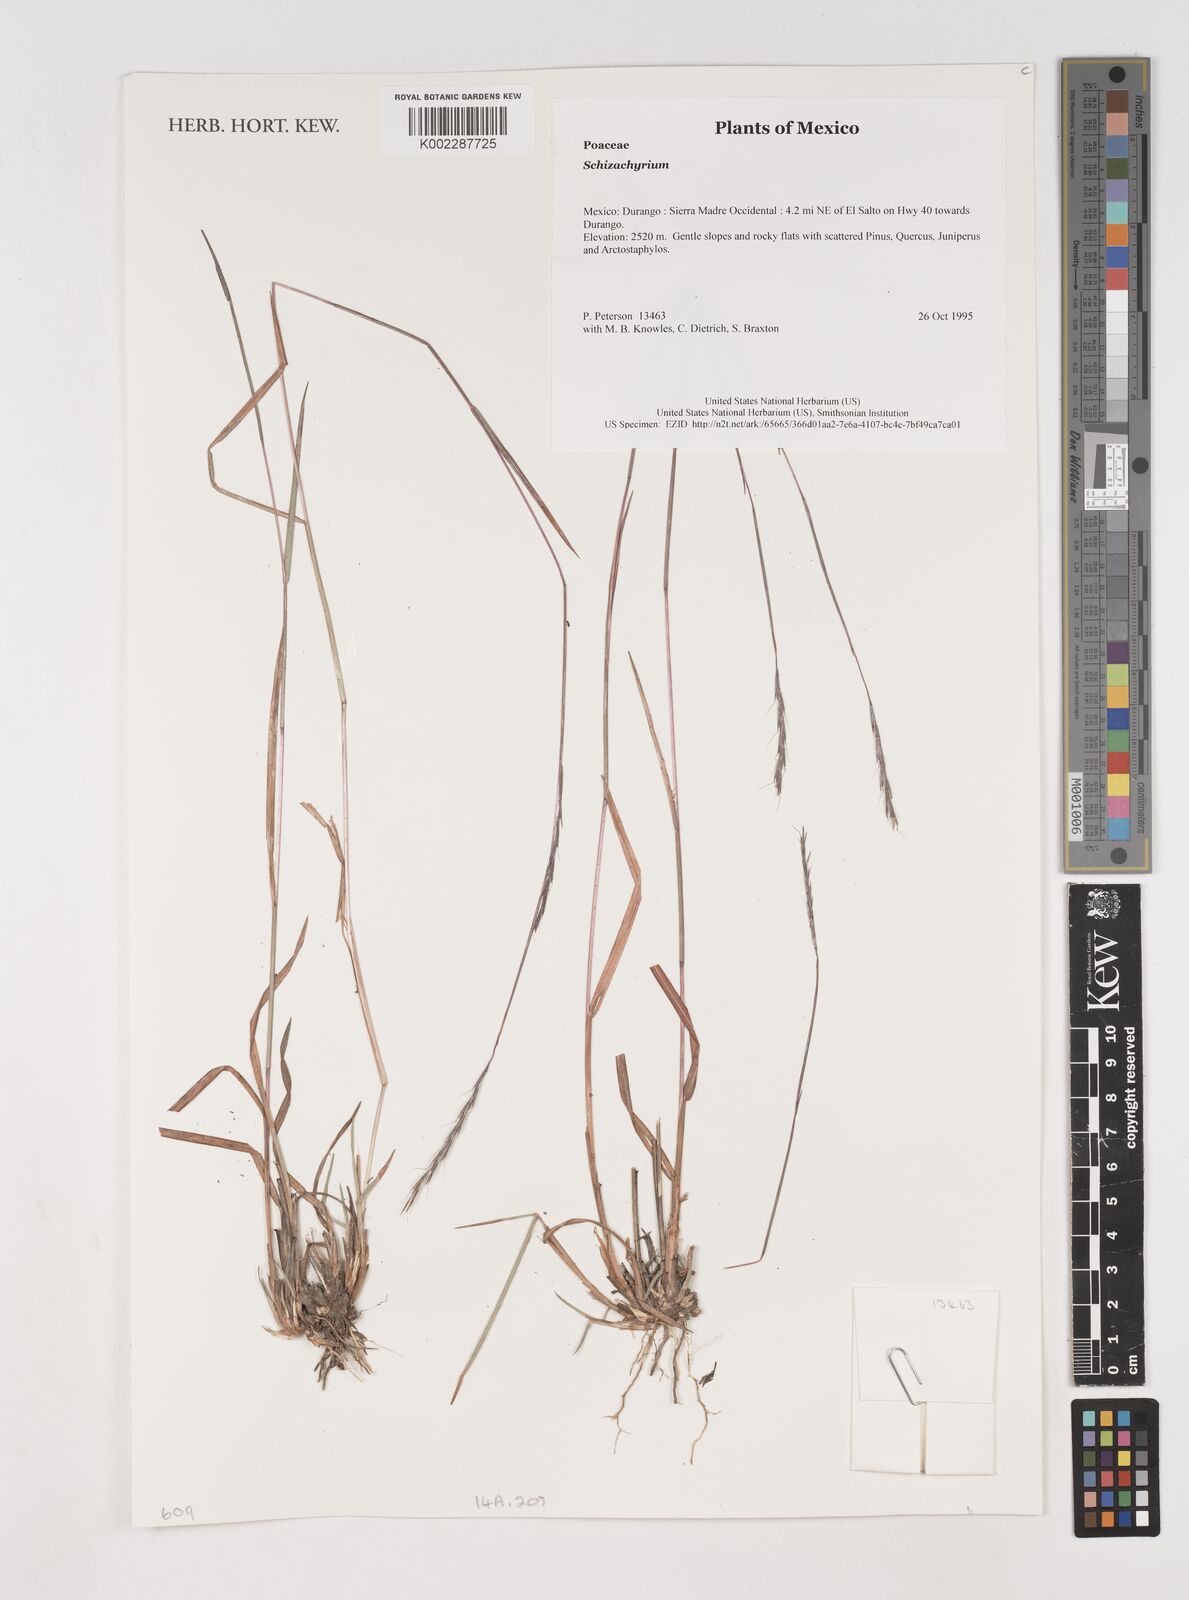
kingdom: Plantae
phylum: Tracheophyta
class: Liliopsida
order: Poales
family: Poaceae
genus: Schizachyrium
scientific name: Schizachyrium
